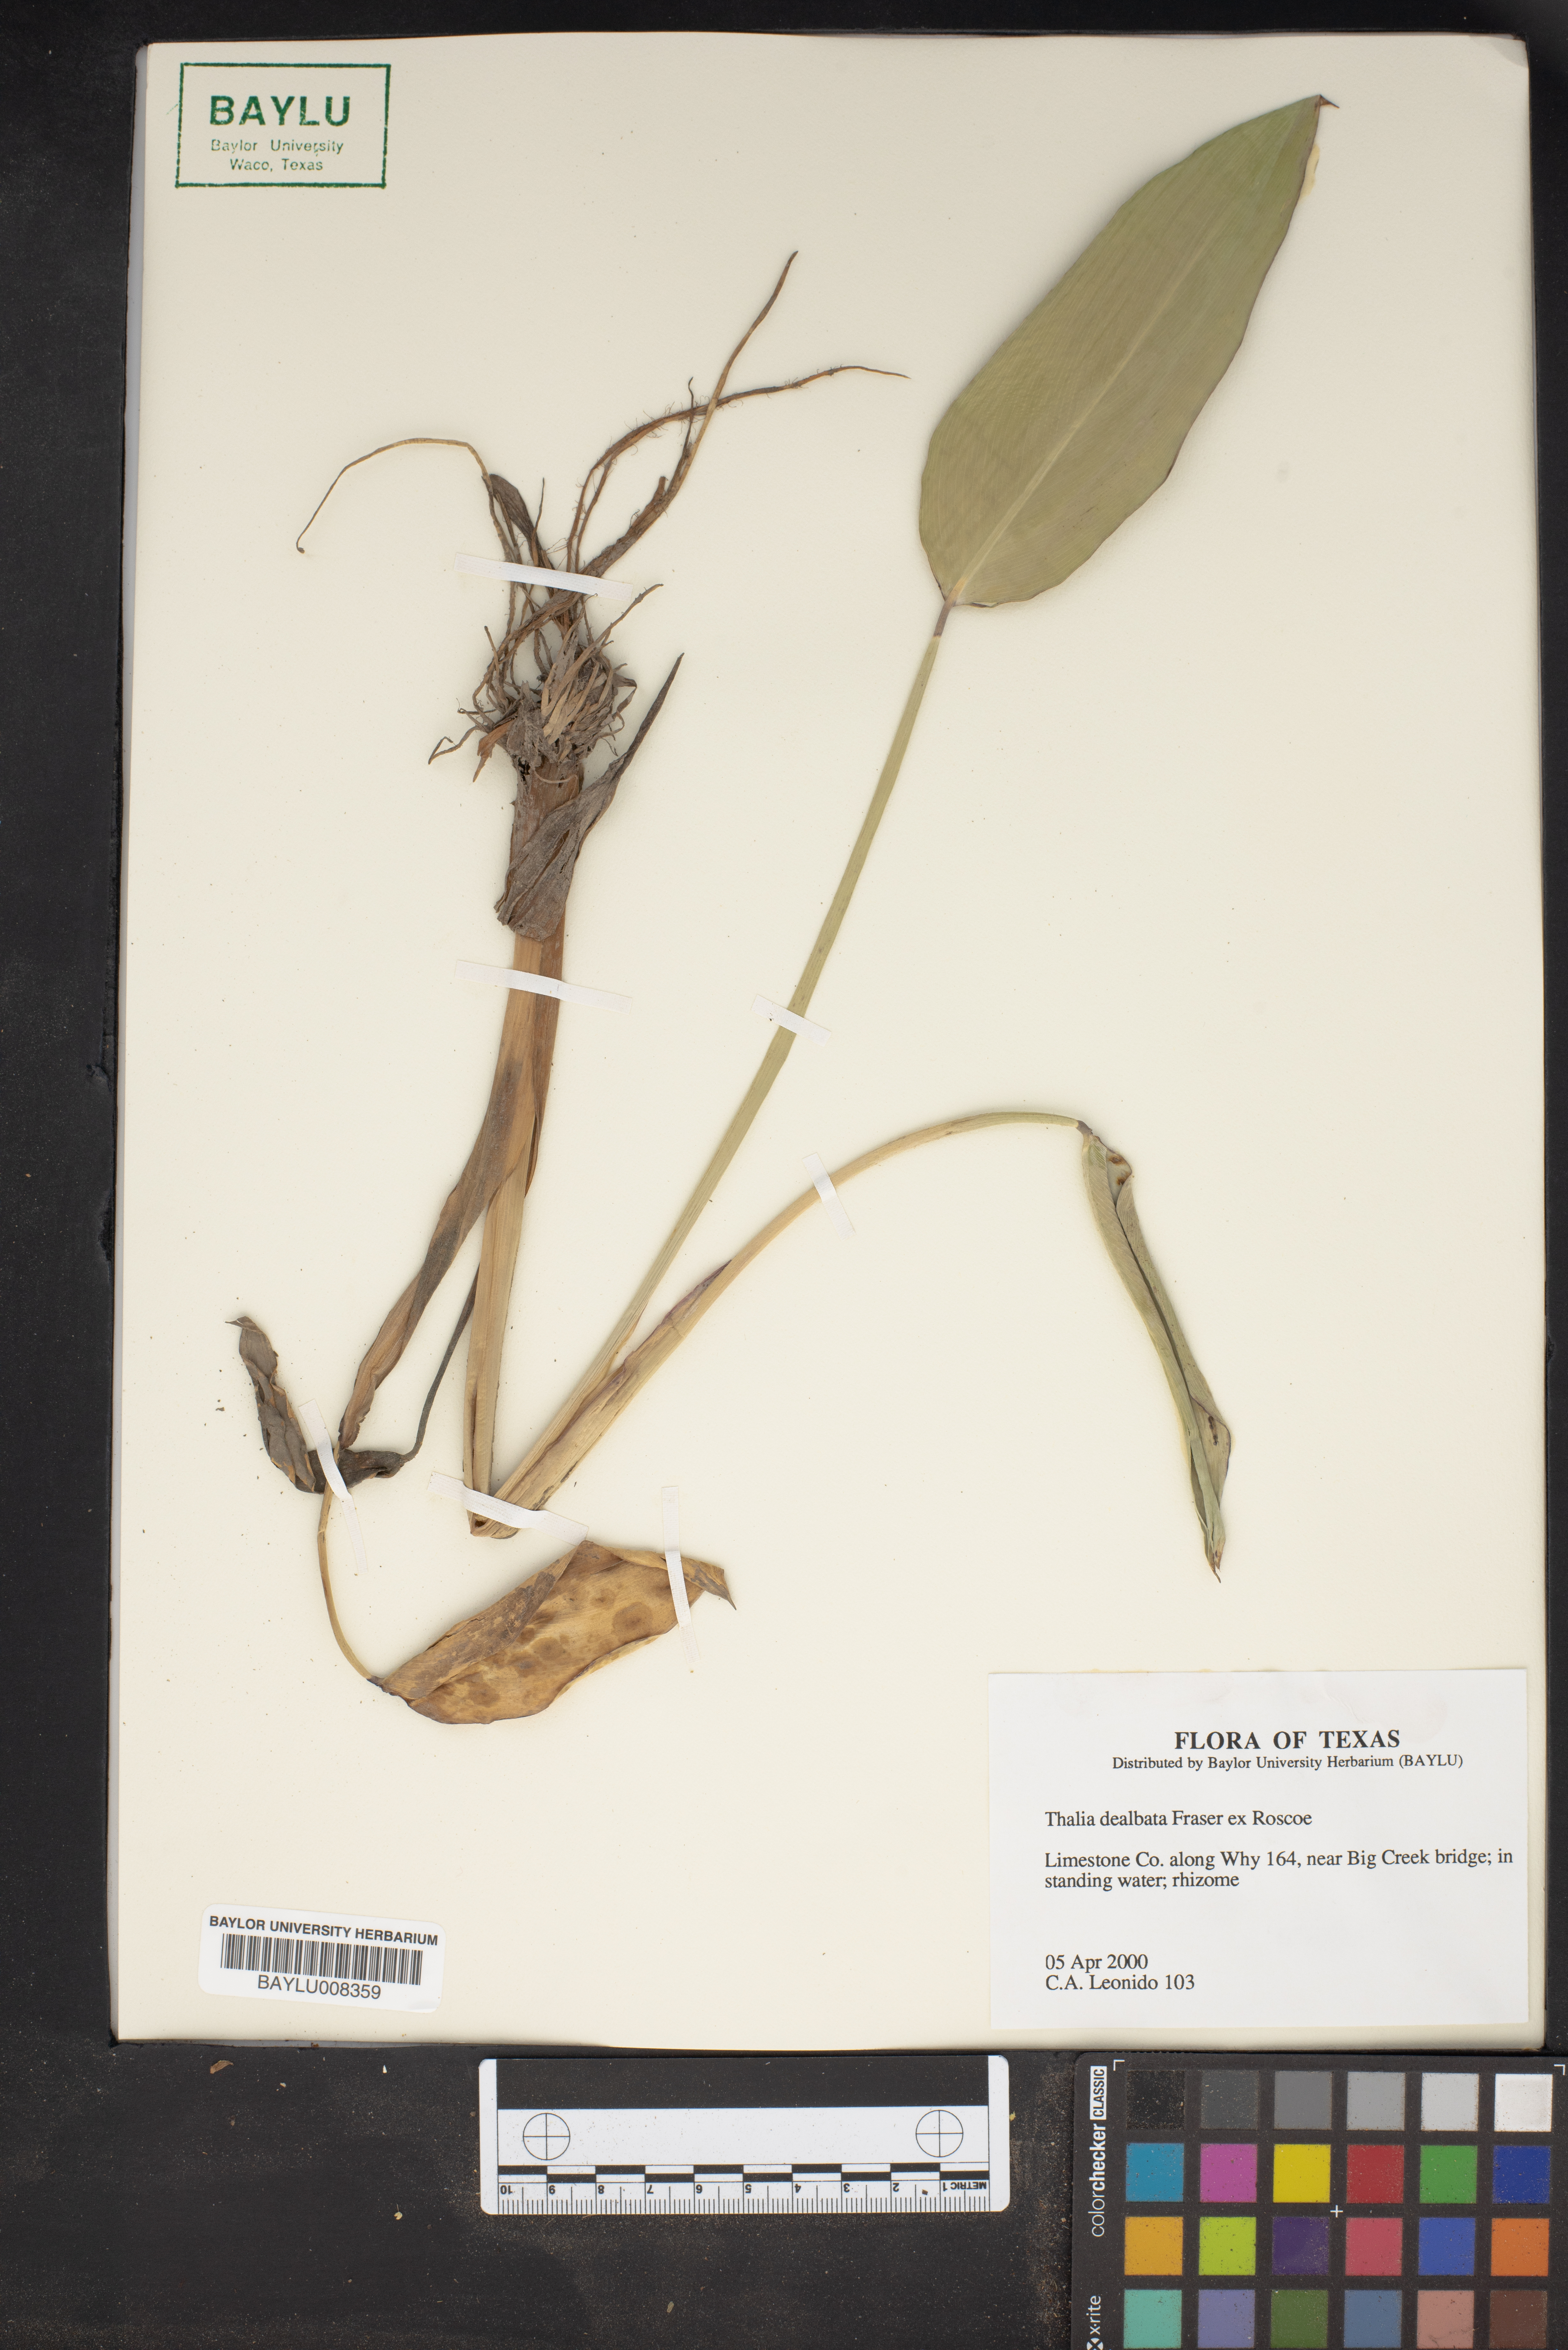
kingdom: Plantae
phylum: Tracheophyta
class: Liliopsida
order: Zingiberales
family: Marantaceae
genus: Thalia
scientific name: Thalia dealbata
